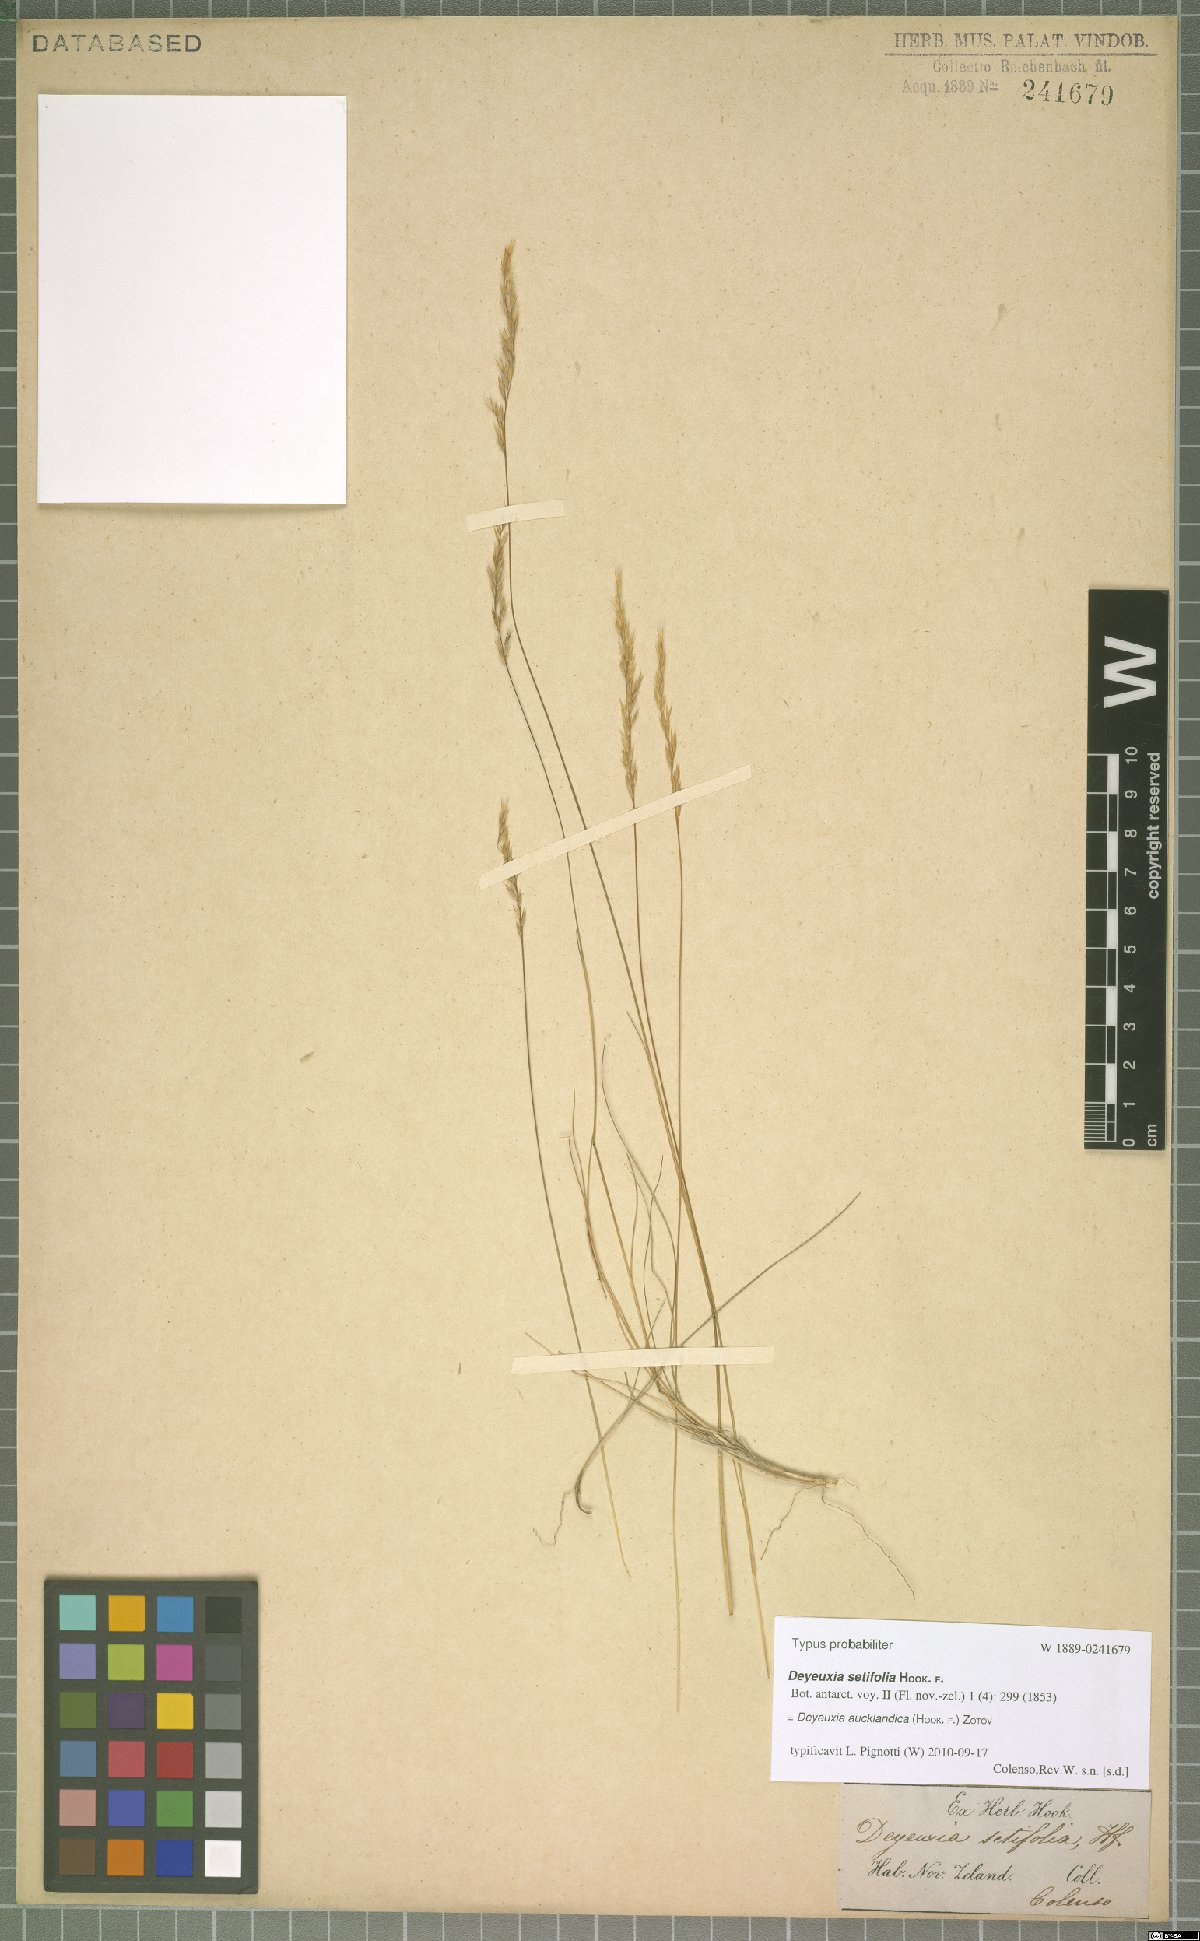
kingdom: Plantae
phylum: Tracheophyta
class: Liliopsida
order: Poales
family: Poaceae
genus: Agrostis
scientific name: Agrostis aucklandica
